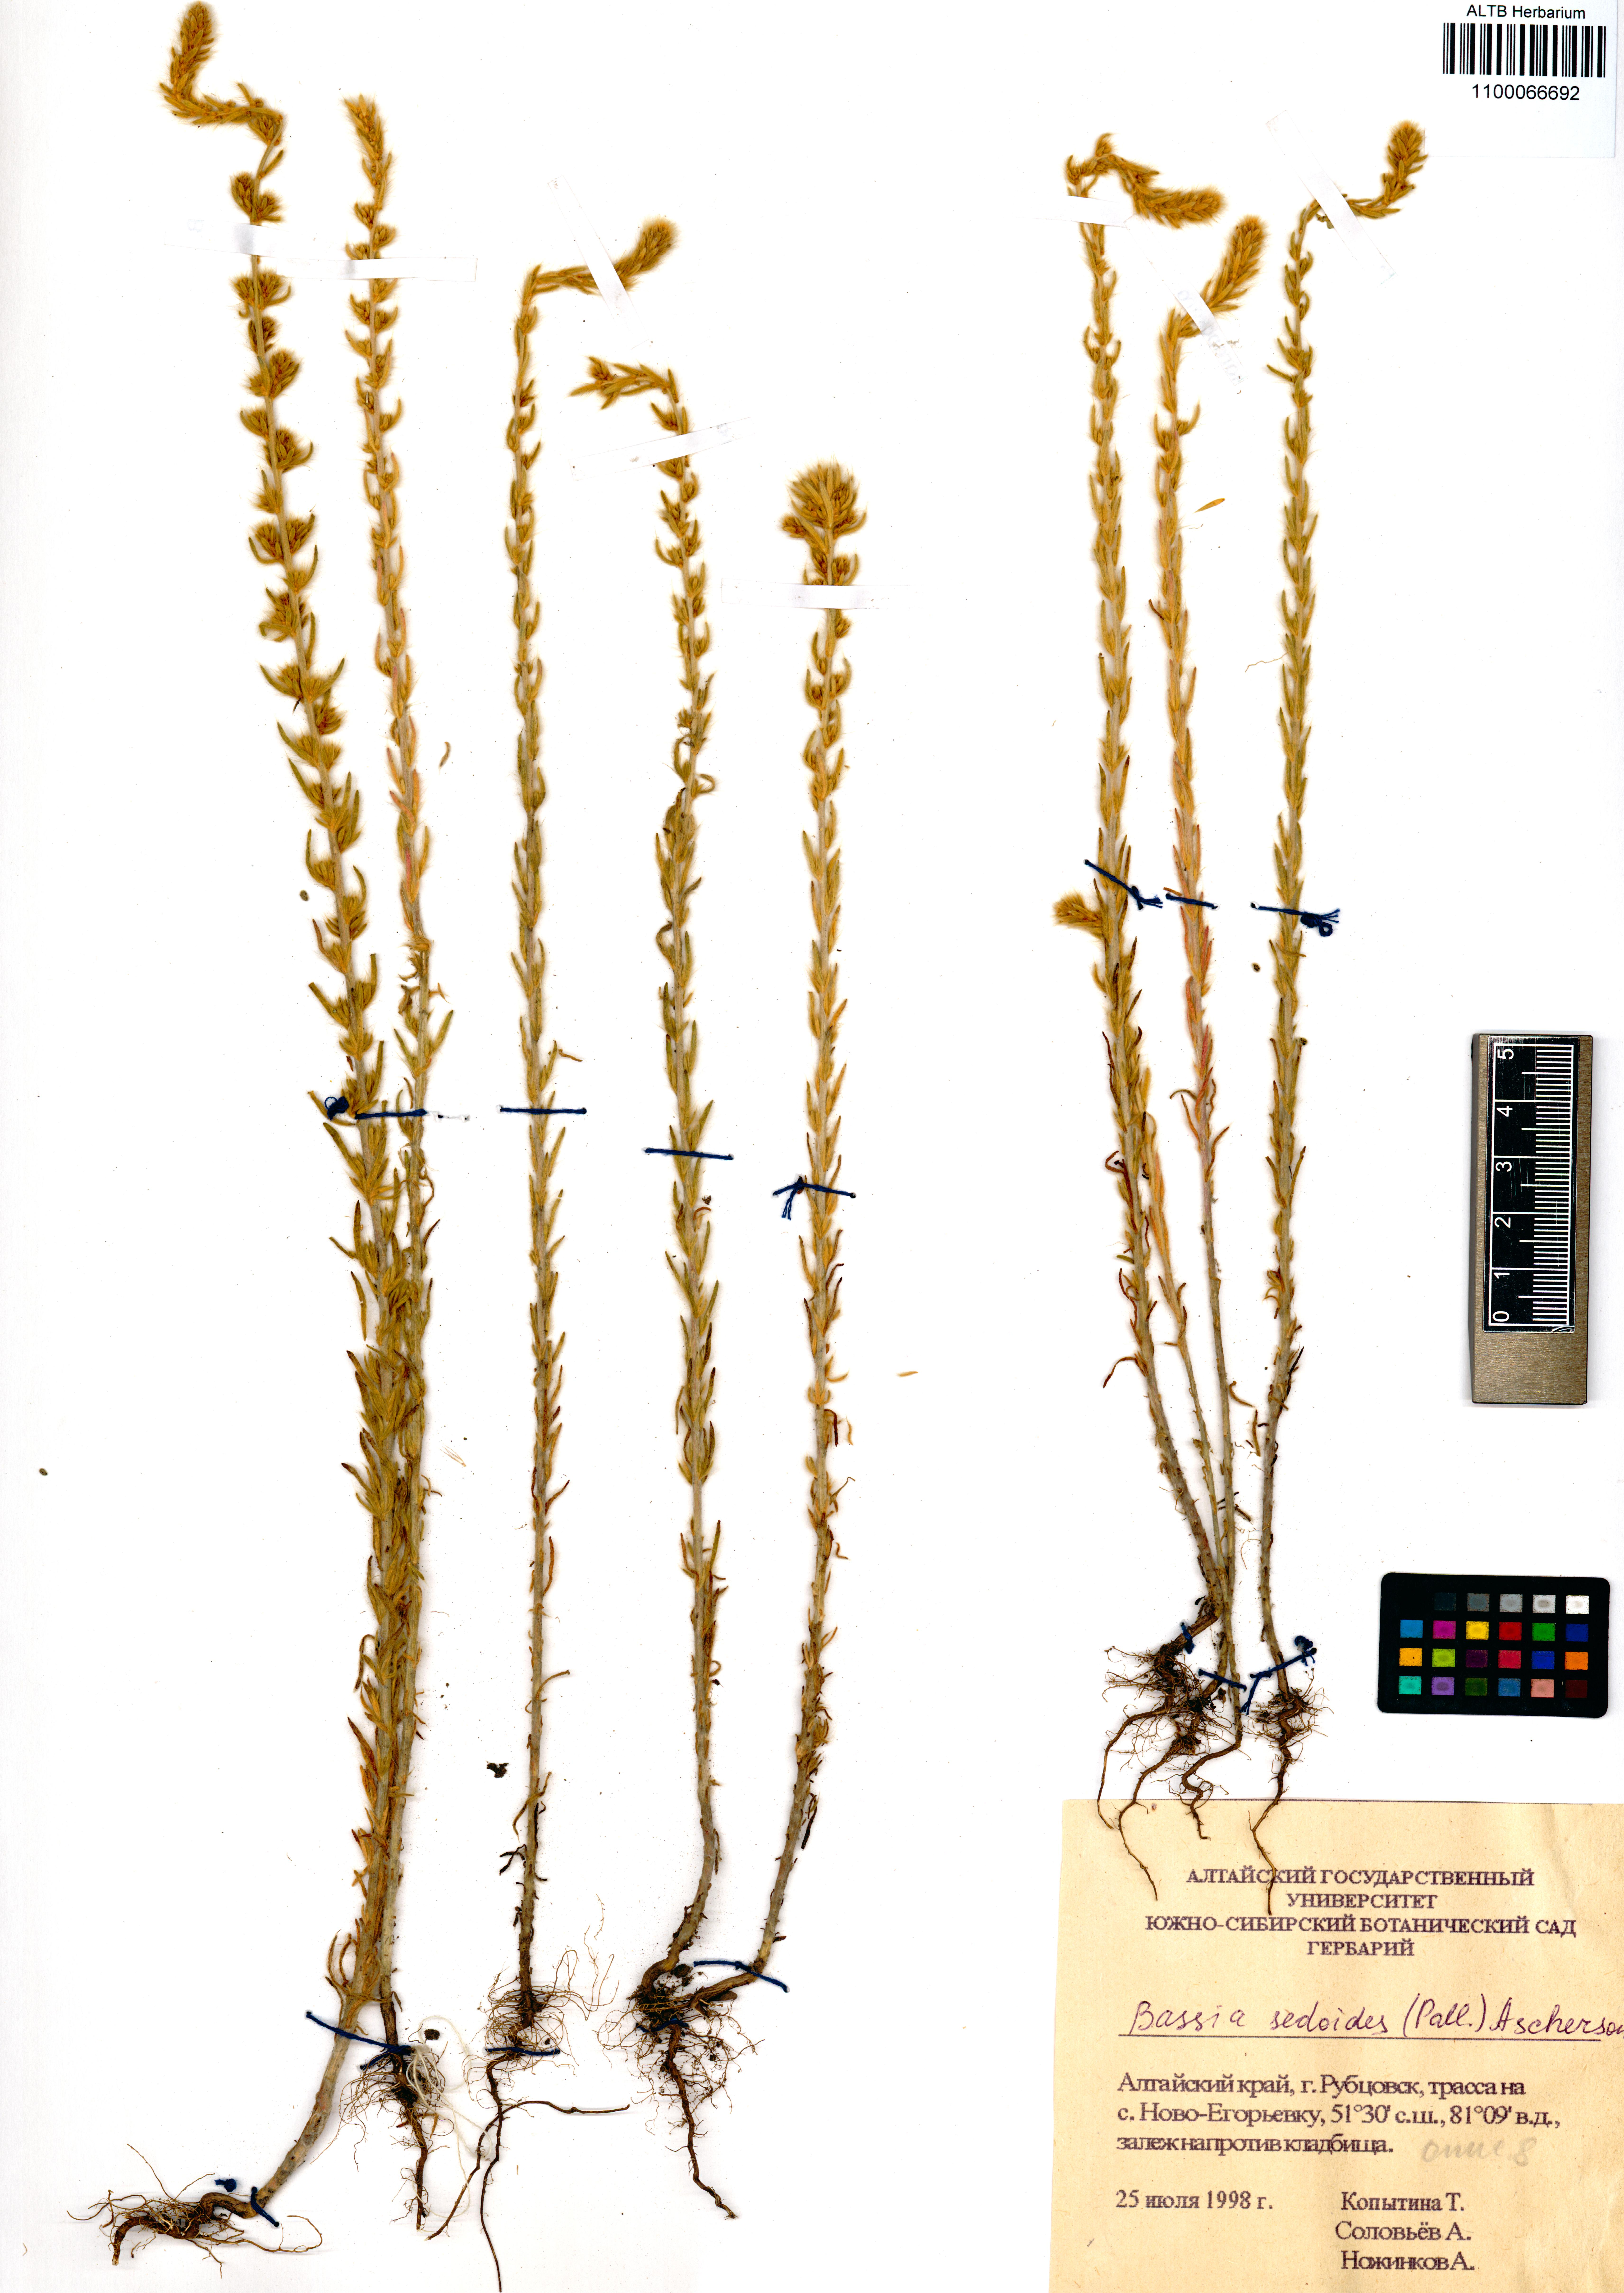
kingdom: Plantae
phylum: Tracheophyta
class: Magnoliopsida
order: Caryophyllales
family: Amaranthaceae
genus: Sedobassia
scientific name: Sedobassia sedoides
